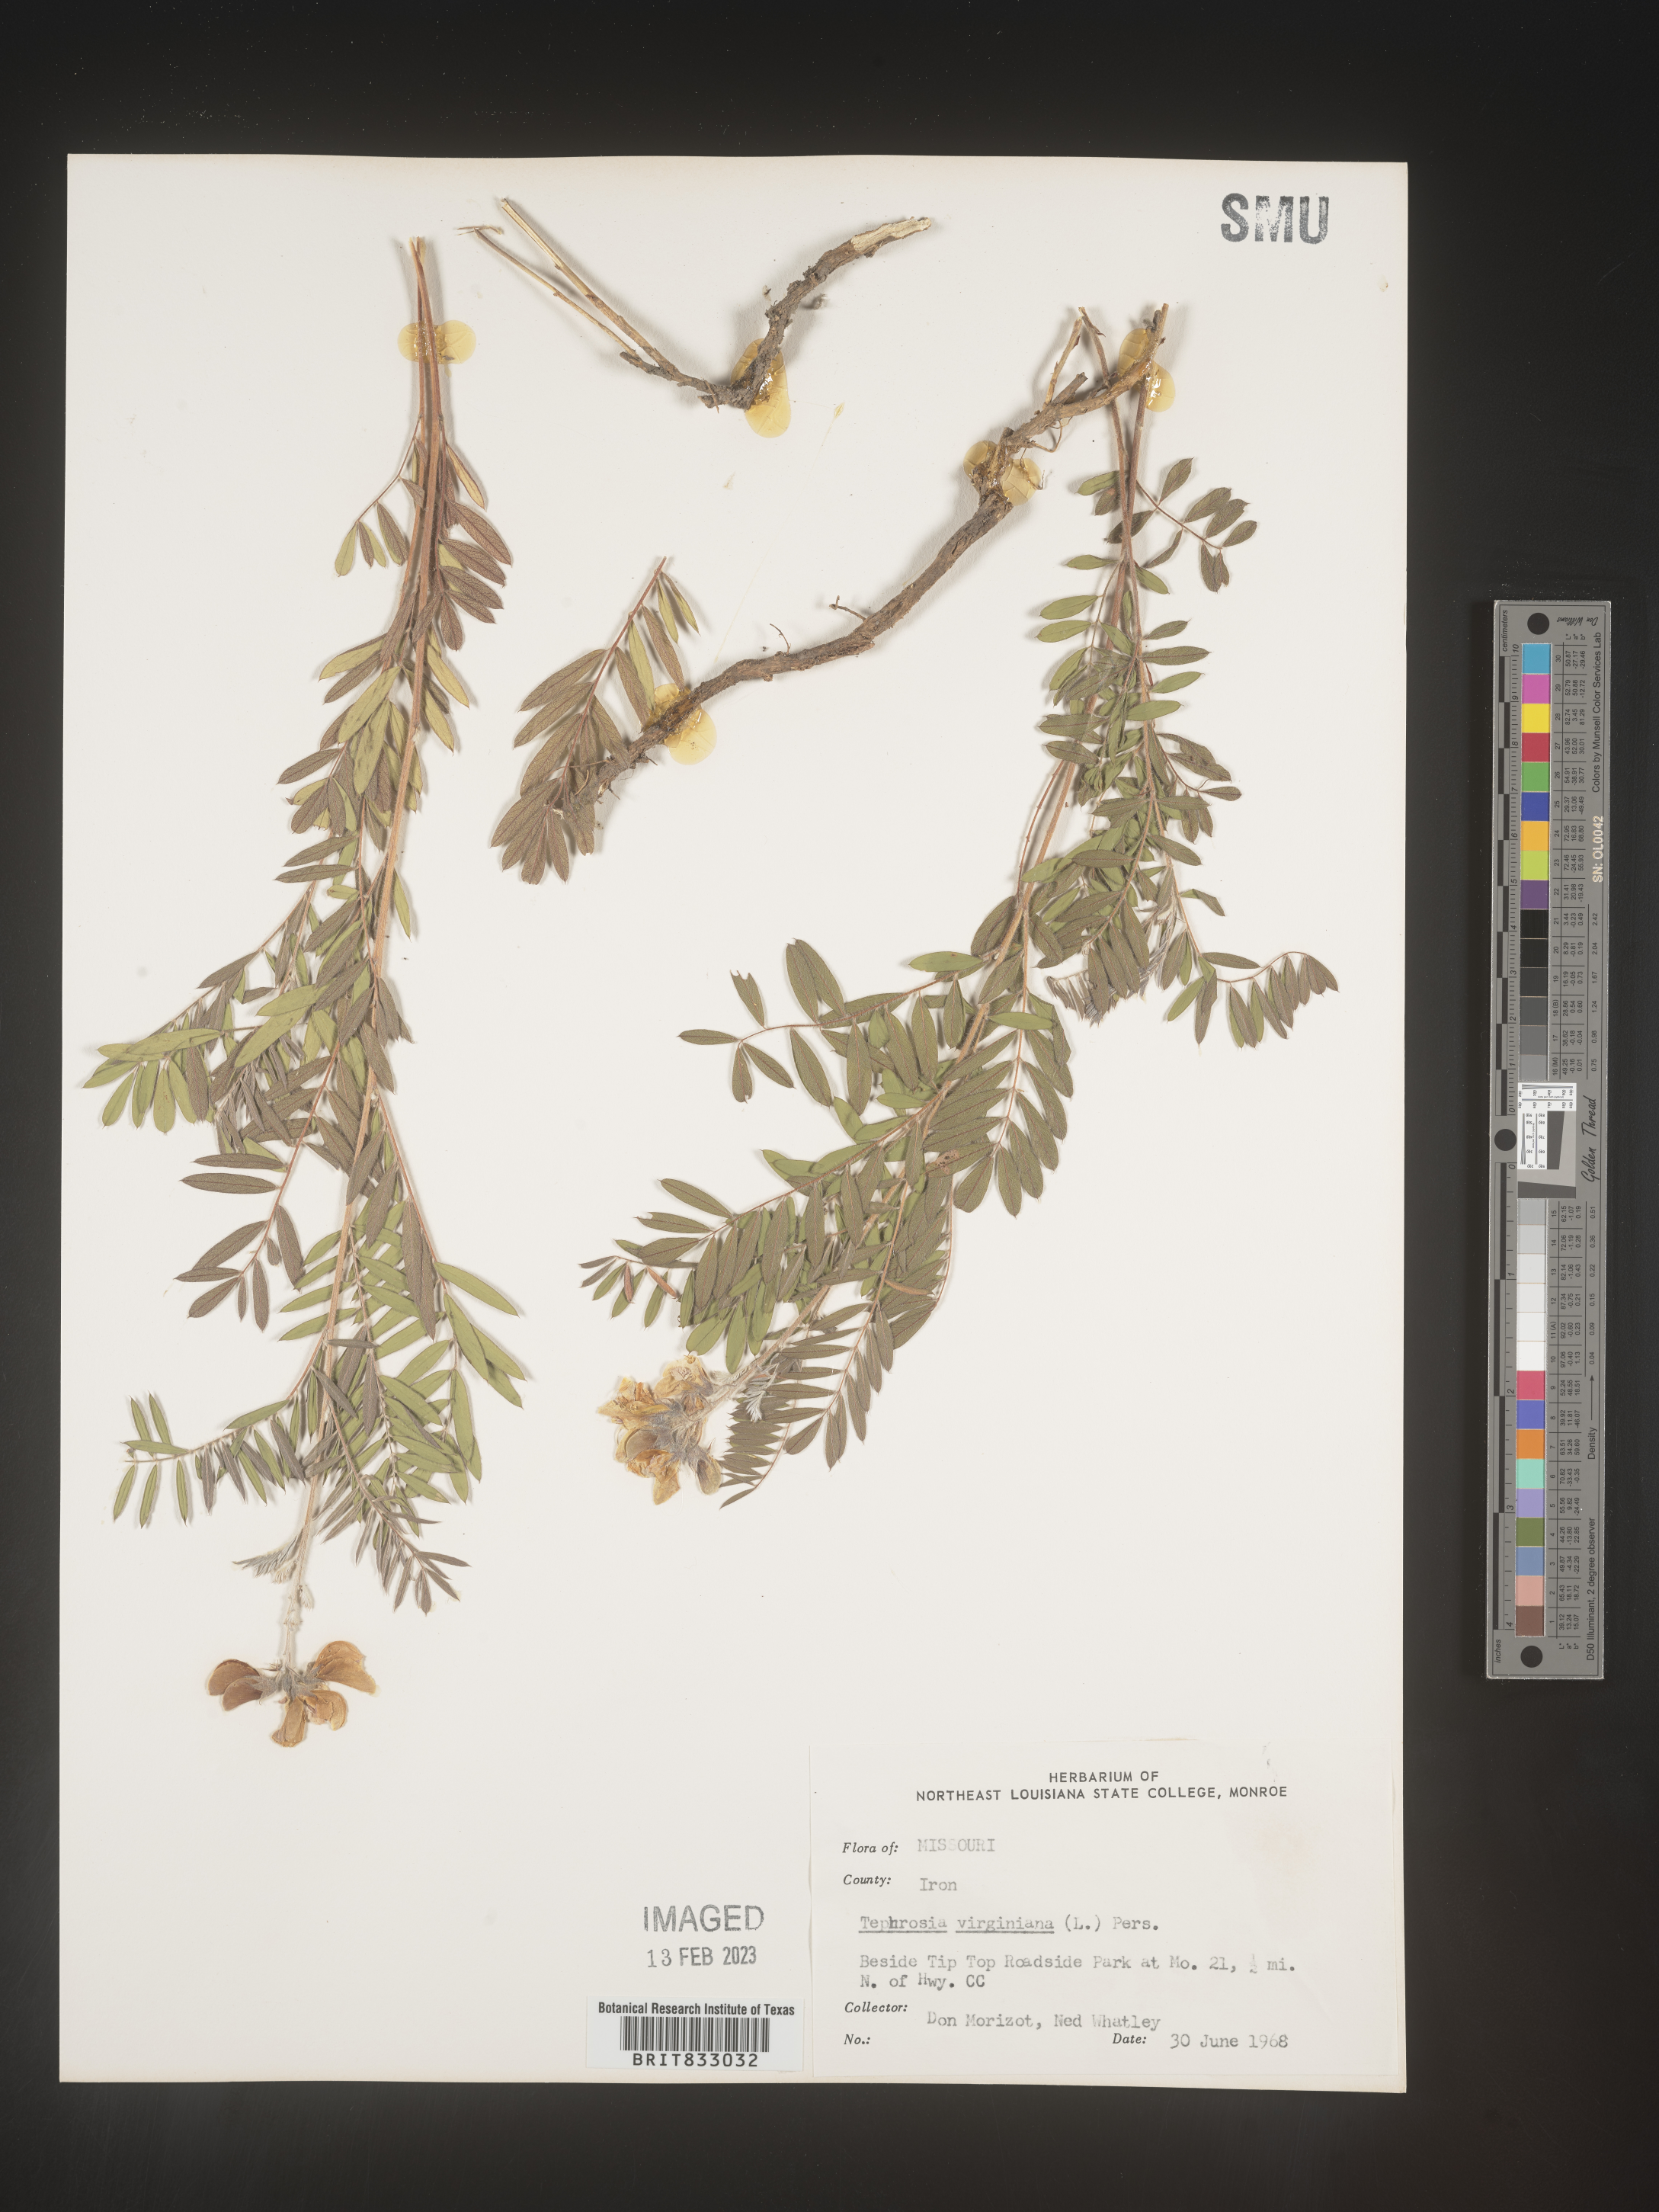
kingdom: Plantae
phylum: Tracheophyta
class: Magnoliopsida
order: Fabales
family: Fabaceae
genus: Tephrosia
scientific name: Tephrosia virginiana
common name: Rabbit-pea
